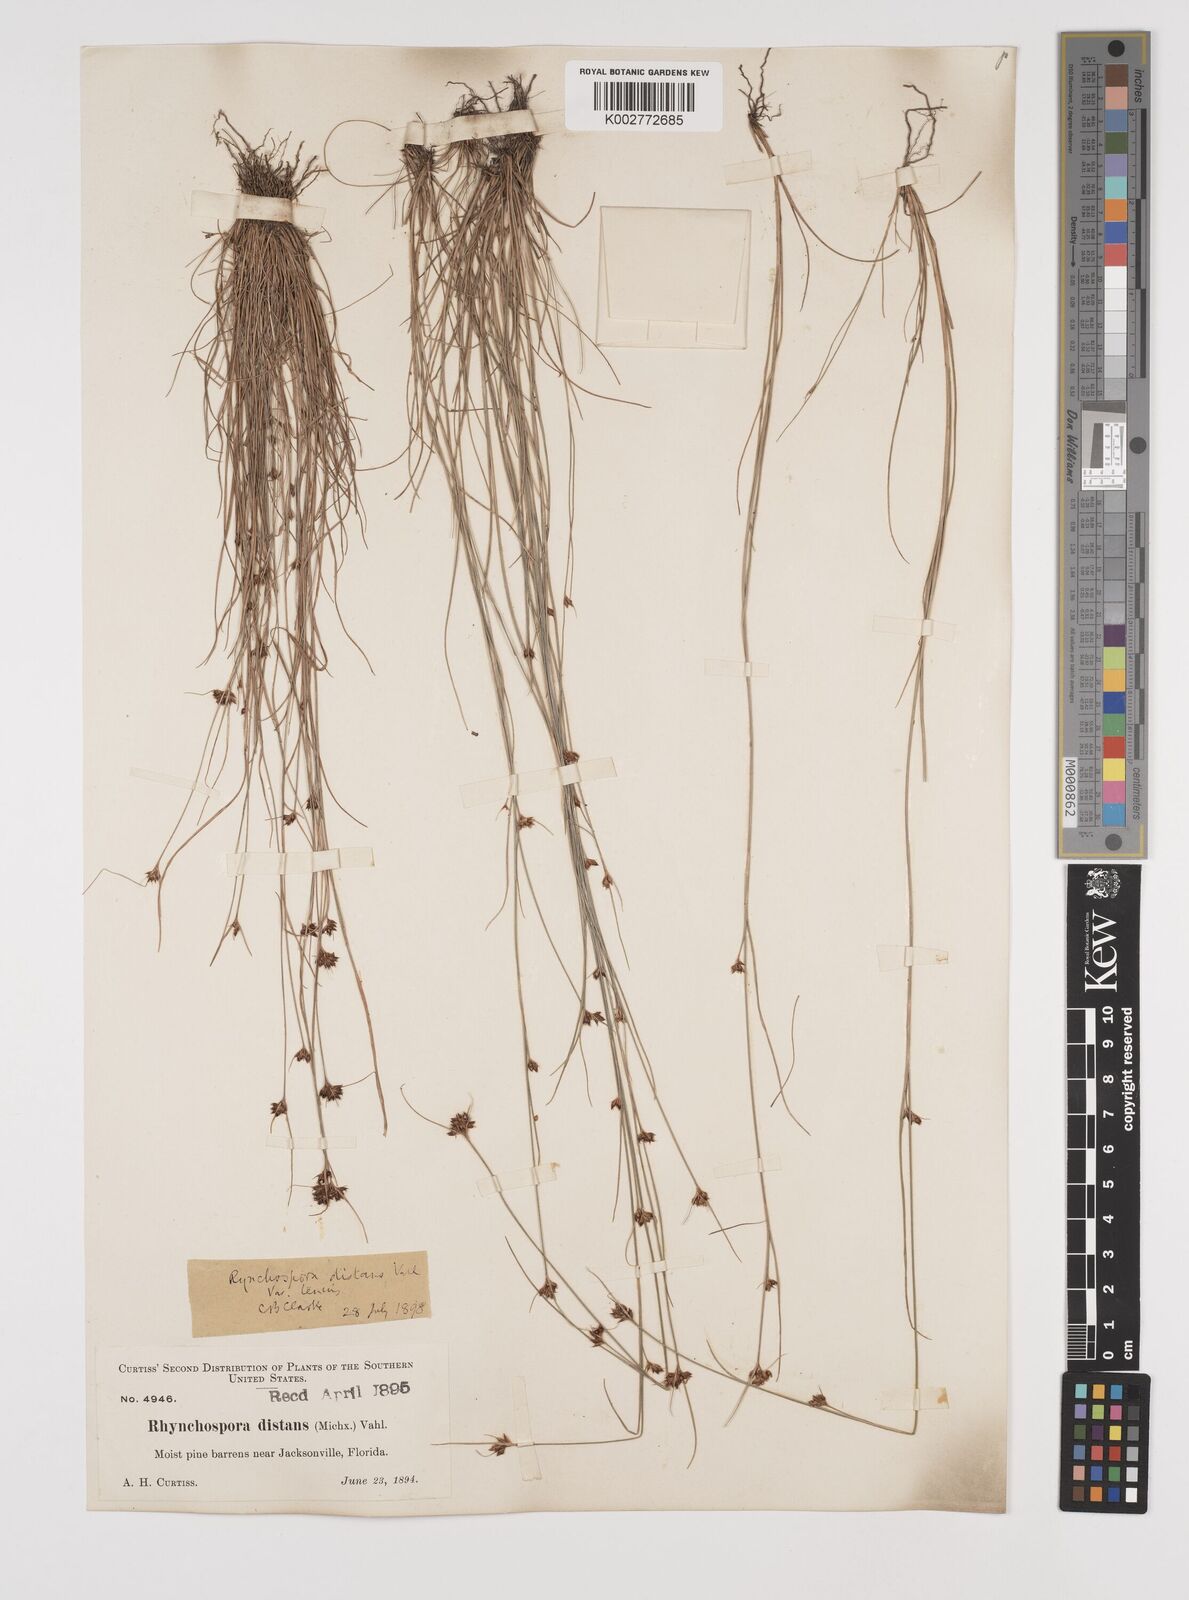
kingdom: Plantae
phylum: Tracheophyta
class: Liliopsida
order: Poales
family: Cyperaceae
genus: Rhynchospora
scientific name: Rhynchospora fascicularis
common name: Fascicled beak sedge
